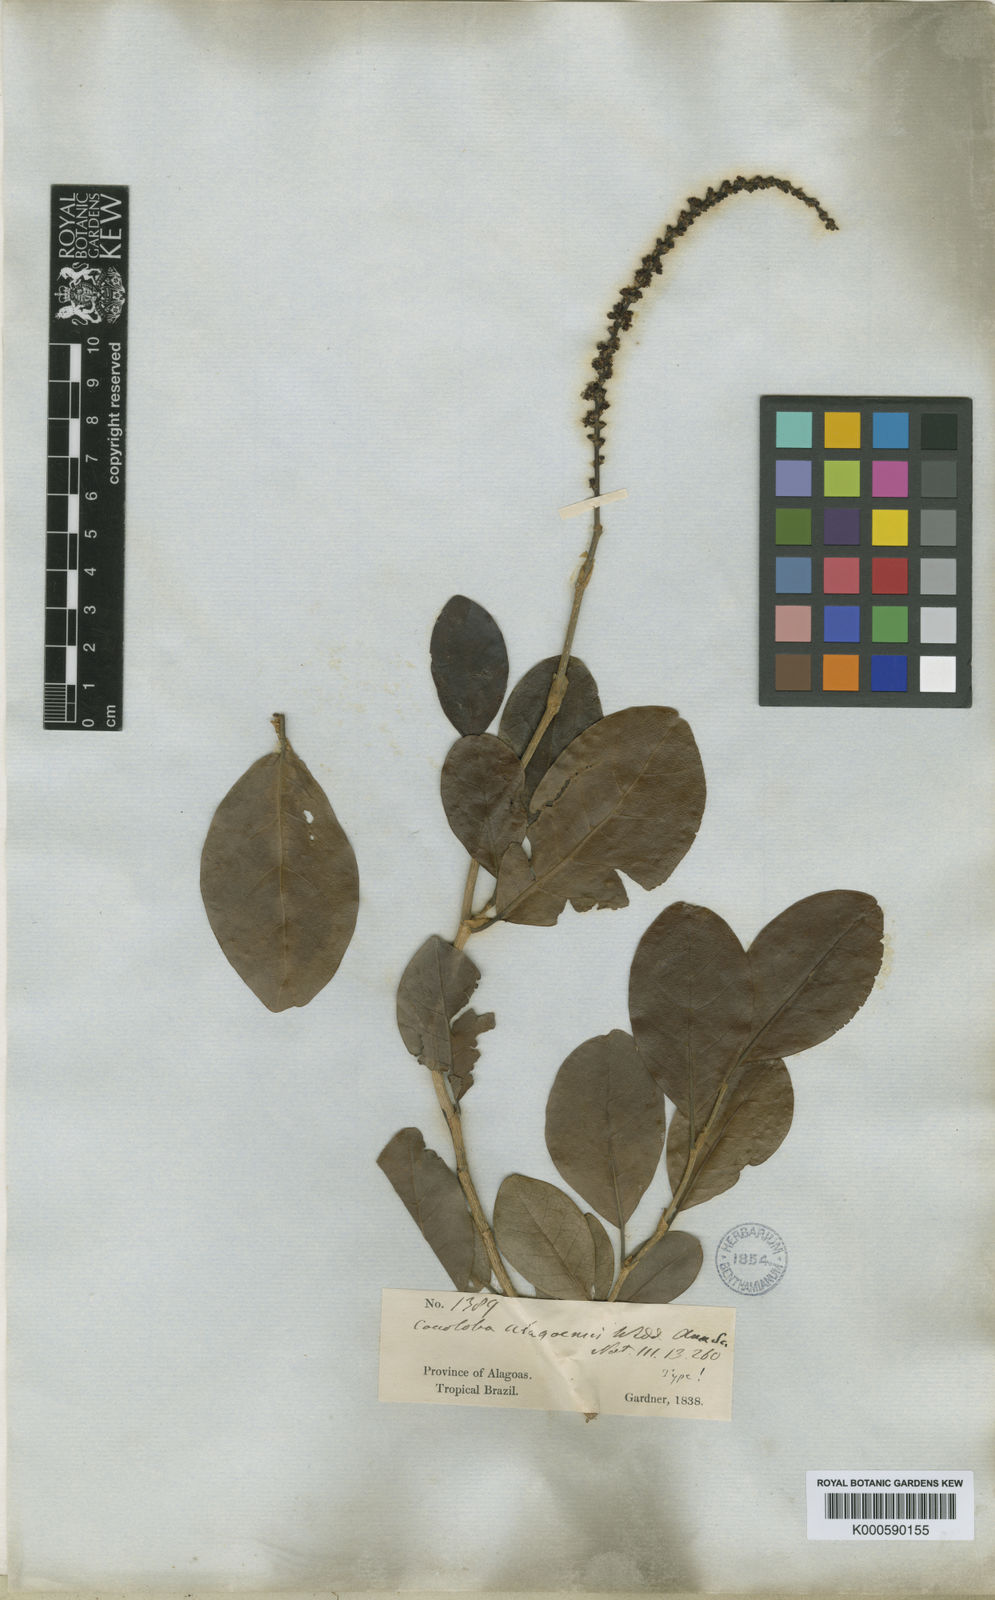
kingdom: Plantae
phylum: Tracheophyta
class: Magnoliopsida
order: Caryophyllales
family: Polygonaceae
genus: Coccoloba
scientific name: Coccoloba obtusifolia
